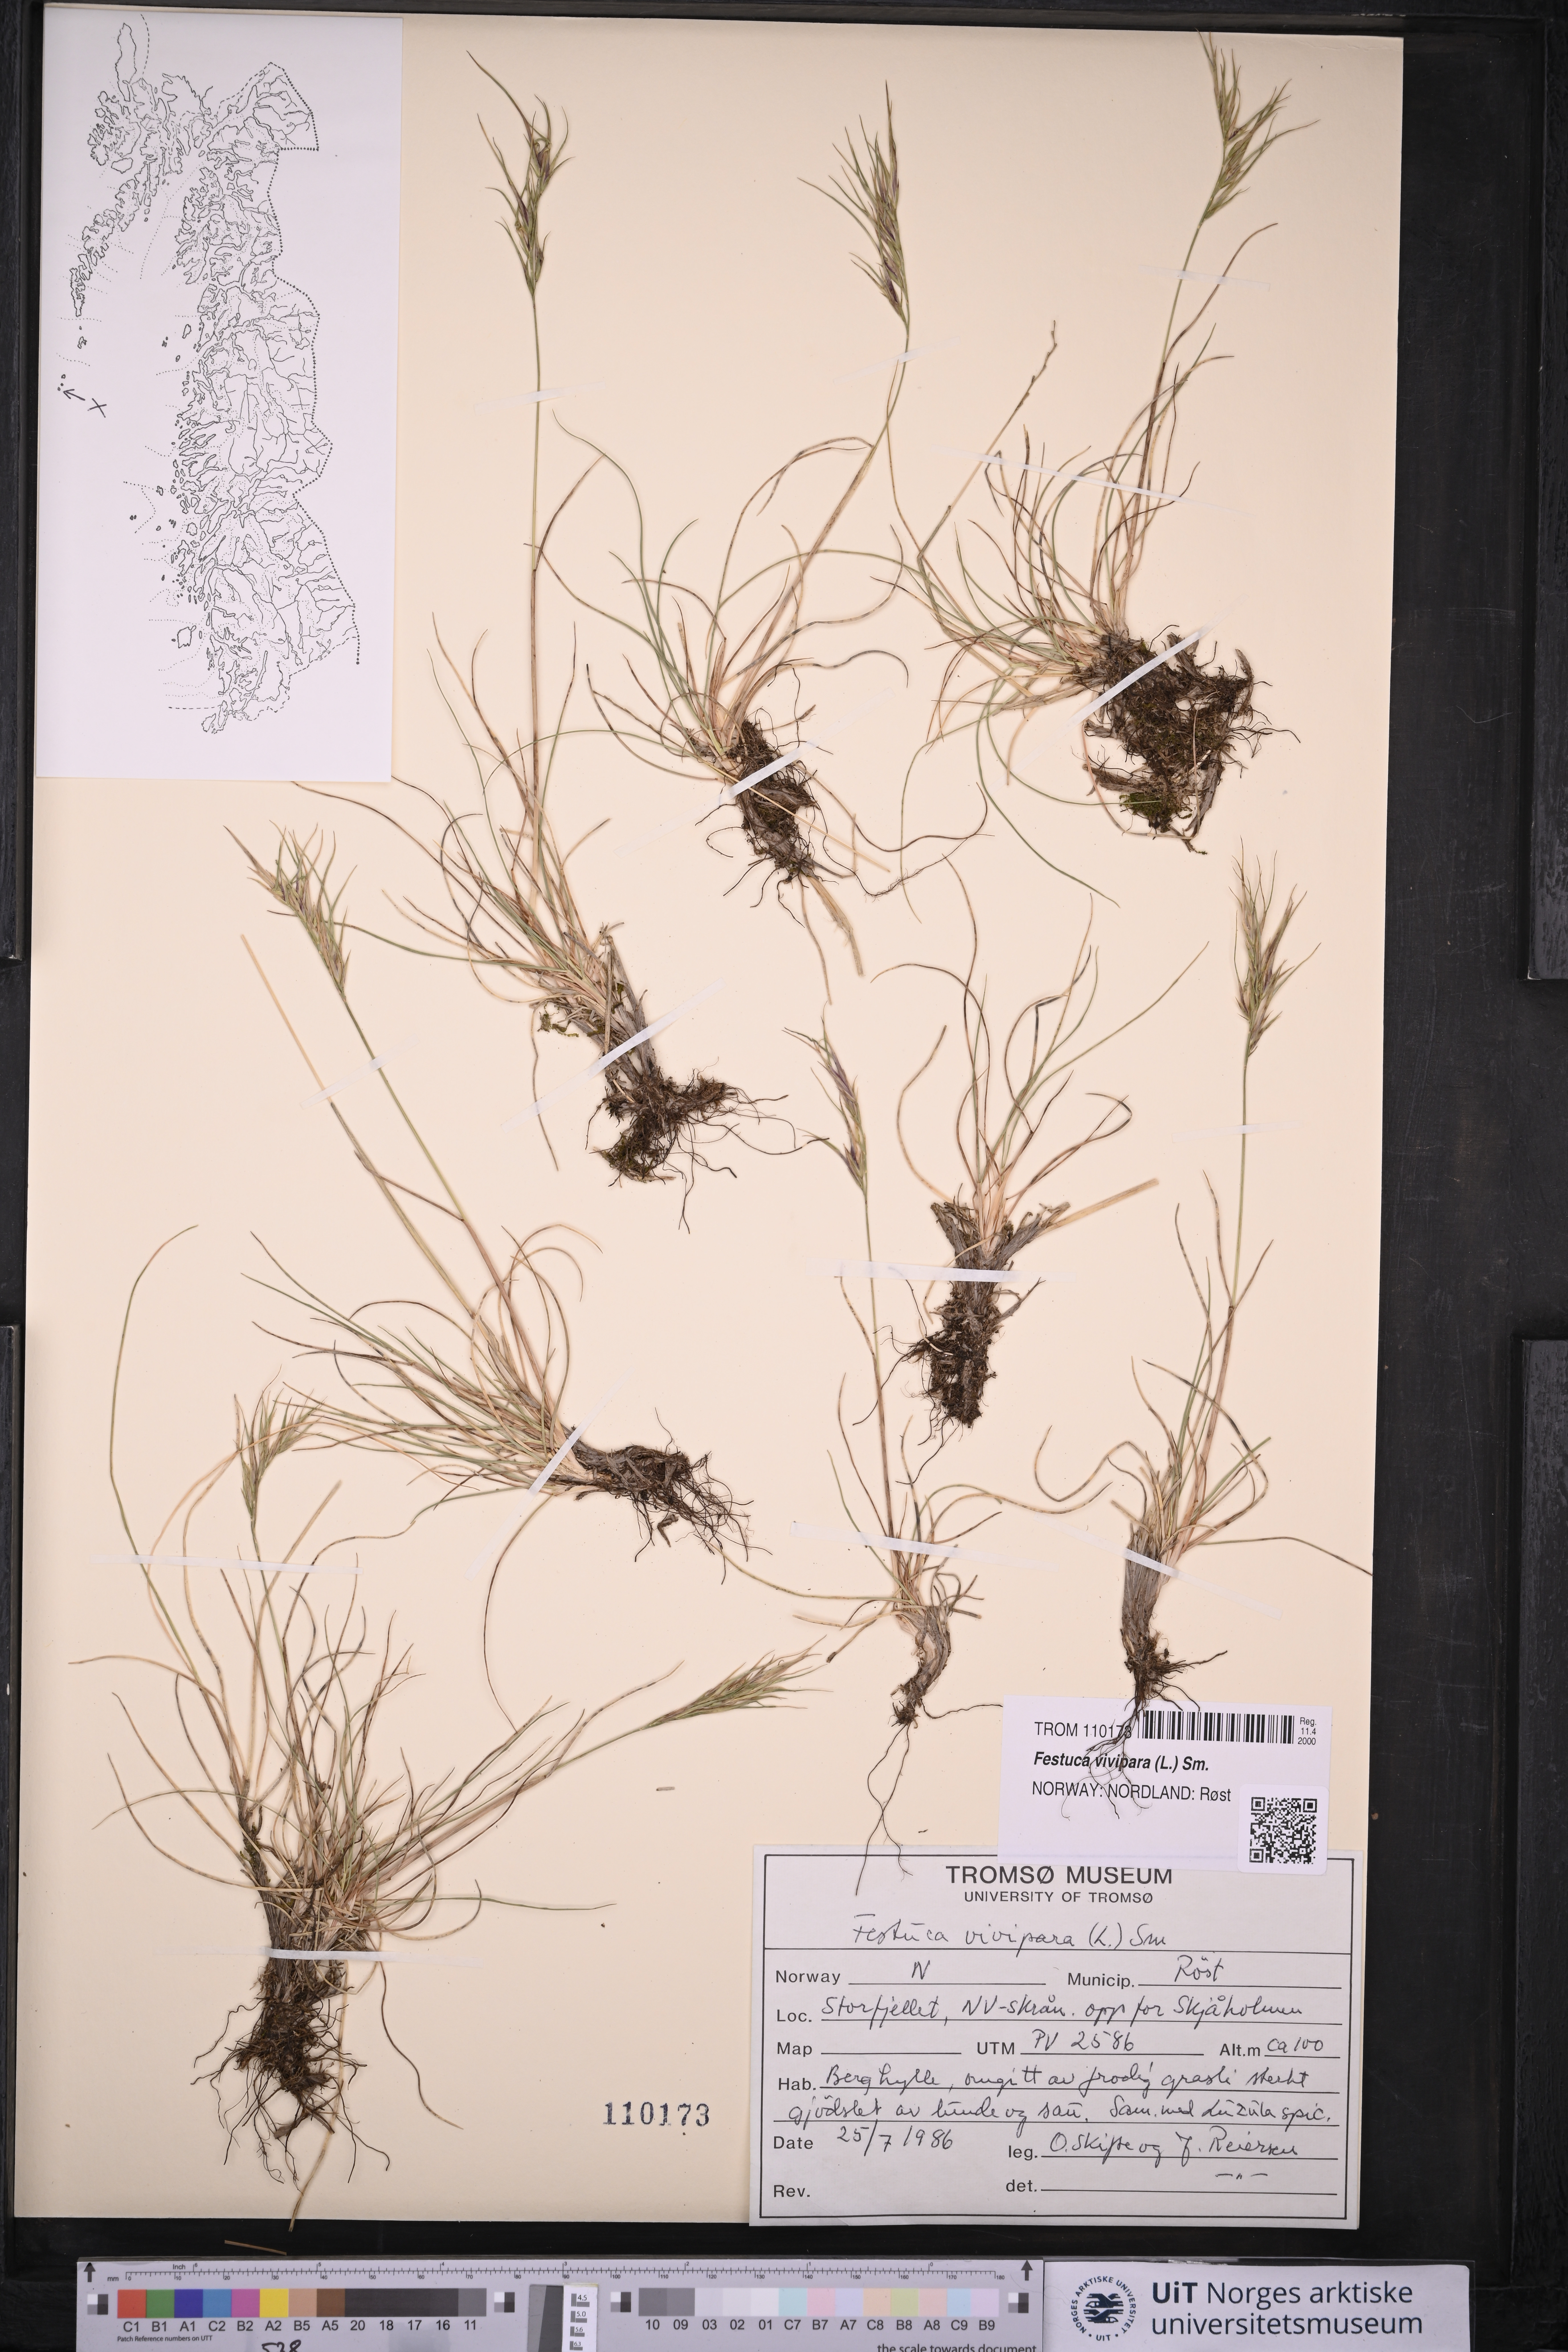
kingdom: Plantae
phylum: Tracheophyta
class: Liliopsida
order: Poales
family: Poaceae
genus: Festuca
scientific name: Festuca vivipara
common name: Viviparous sheep's-fescue
